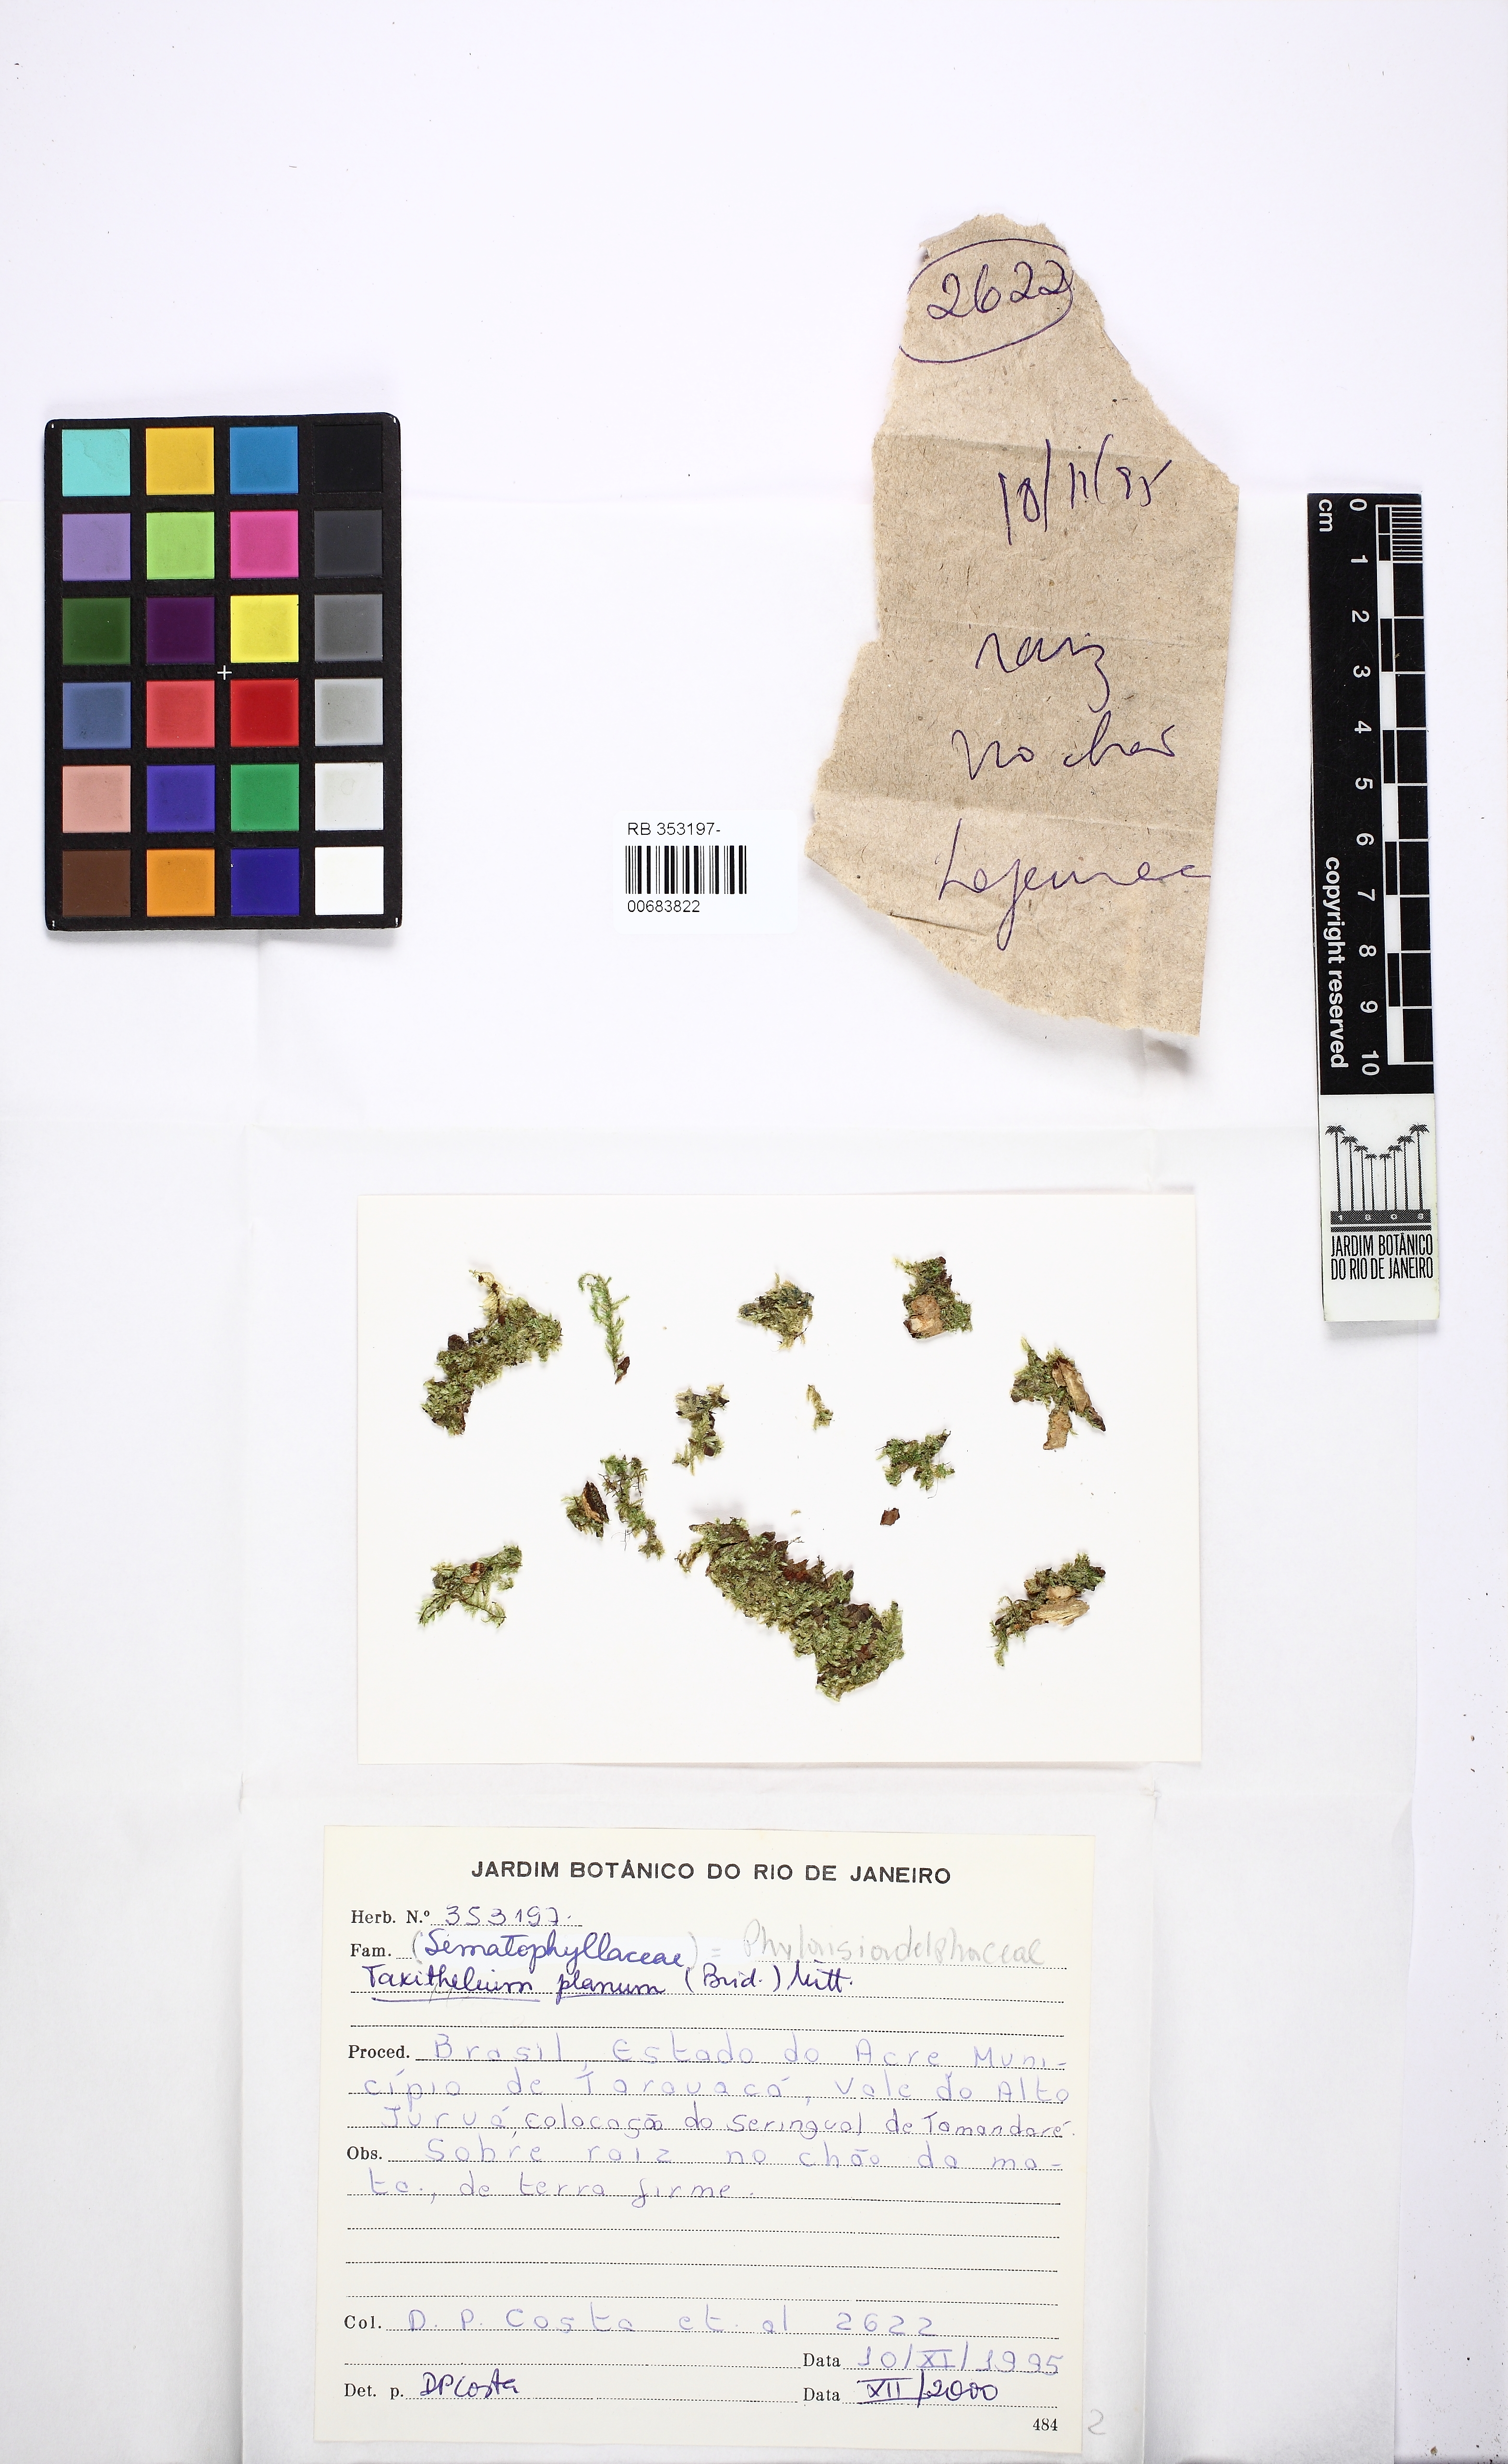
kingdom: Plantae
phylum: Bryophyta
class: Bryopsida
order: Hypnales
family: Pylaisiadelphaceae
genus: Taxithelium
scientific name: Taxithelium planum
